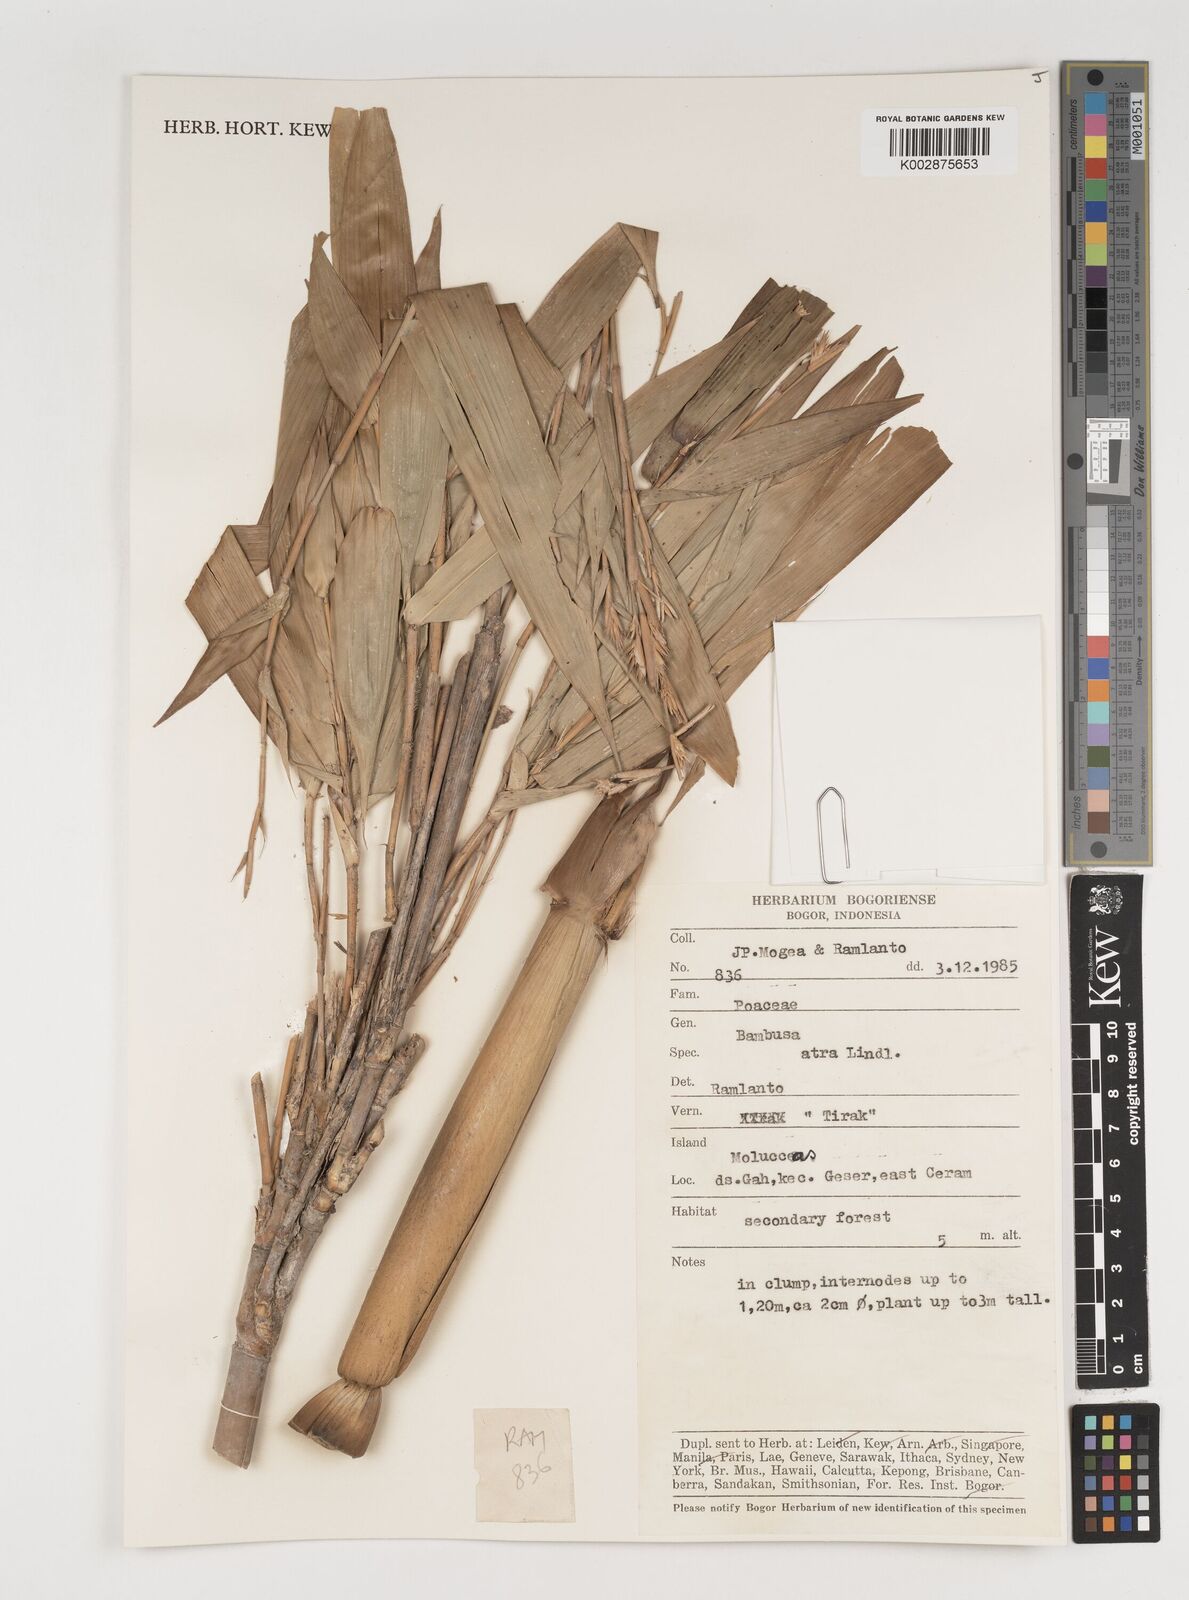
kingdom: Plantae
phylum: Tracheophyta
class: Liliopsida
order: Poales
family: Poaceae
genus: Neololeba
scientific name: Neololeba
